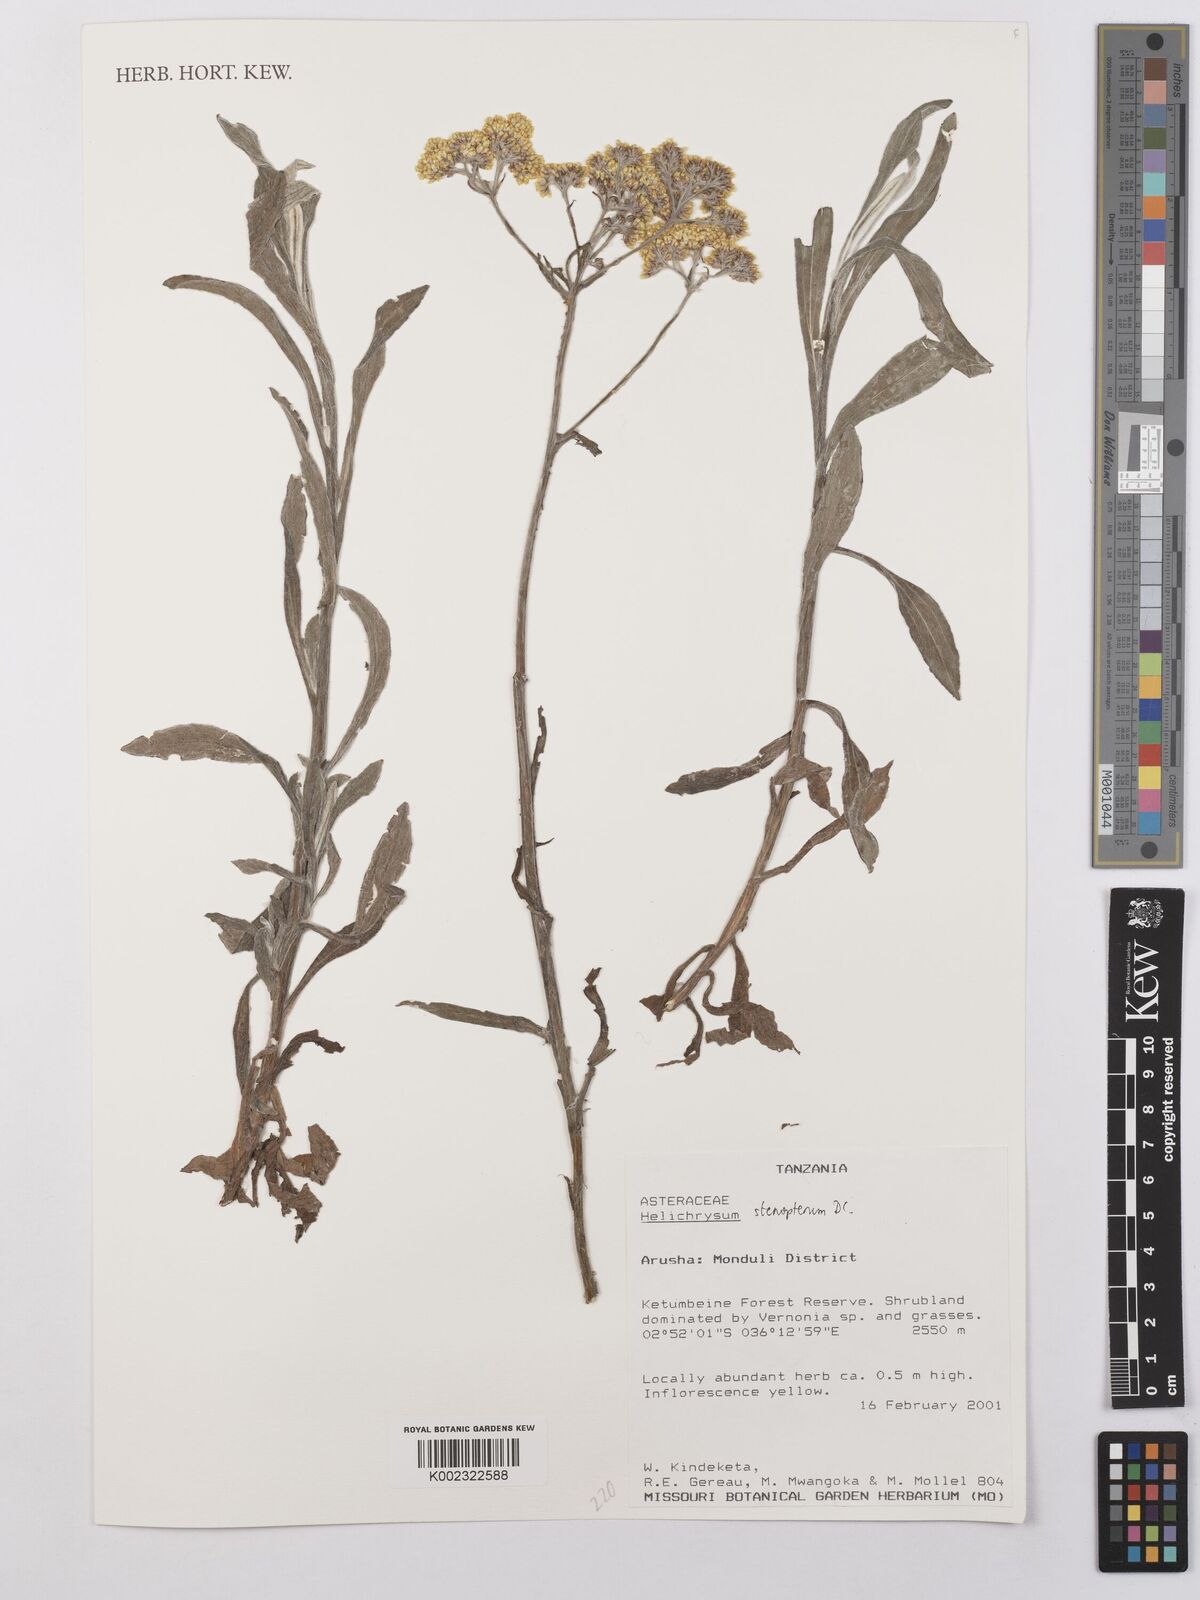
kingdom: Plantae
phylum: Tracheophyta
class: Magnoliopsida
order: Asterales
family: Asteraceae
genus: Helichrysum
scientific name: Helichrysum stenopterum
